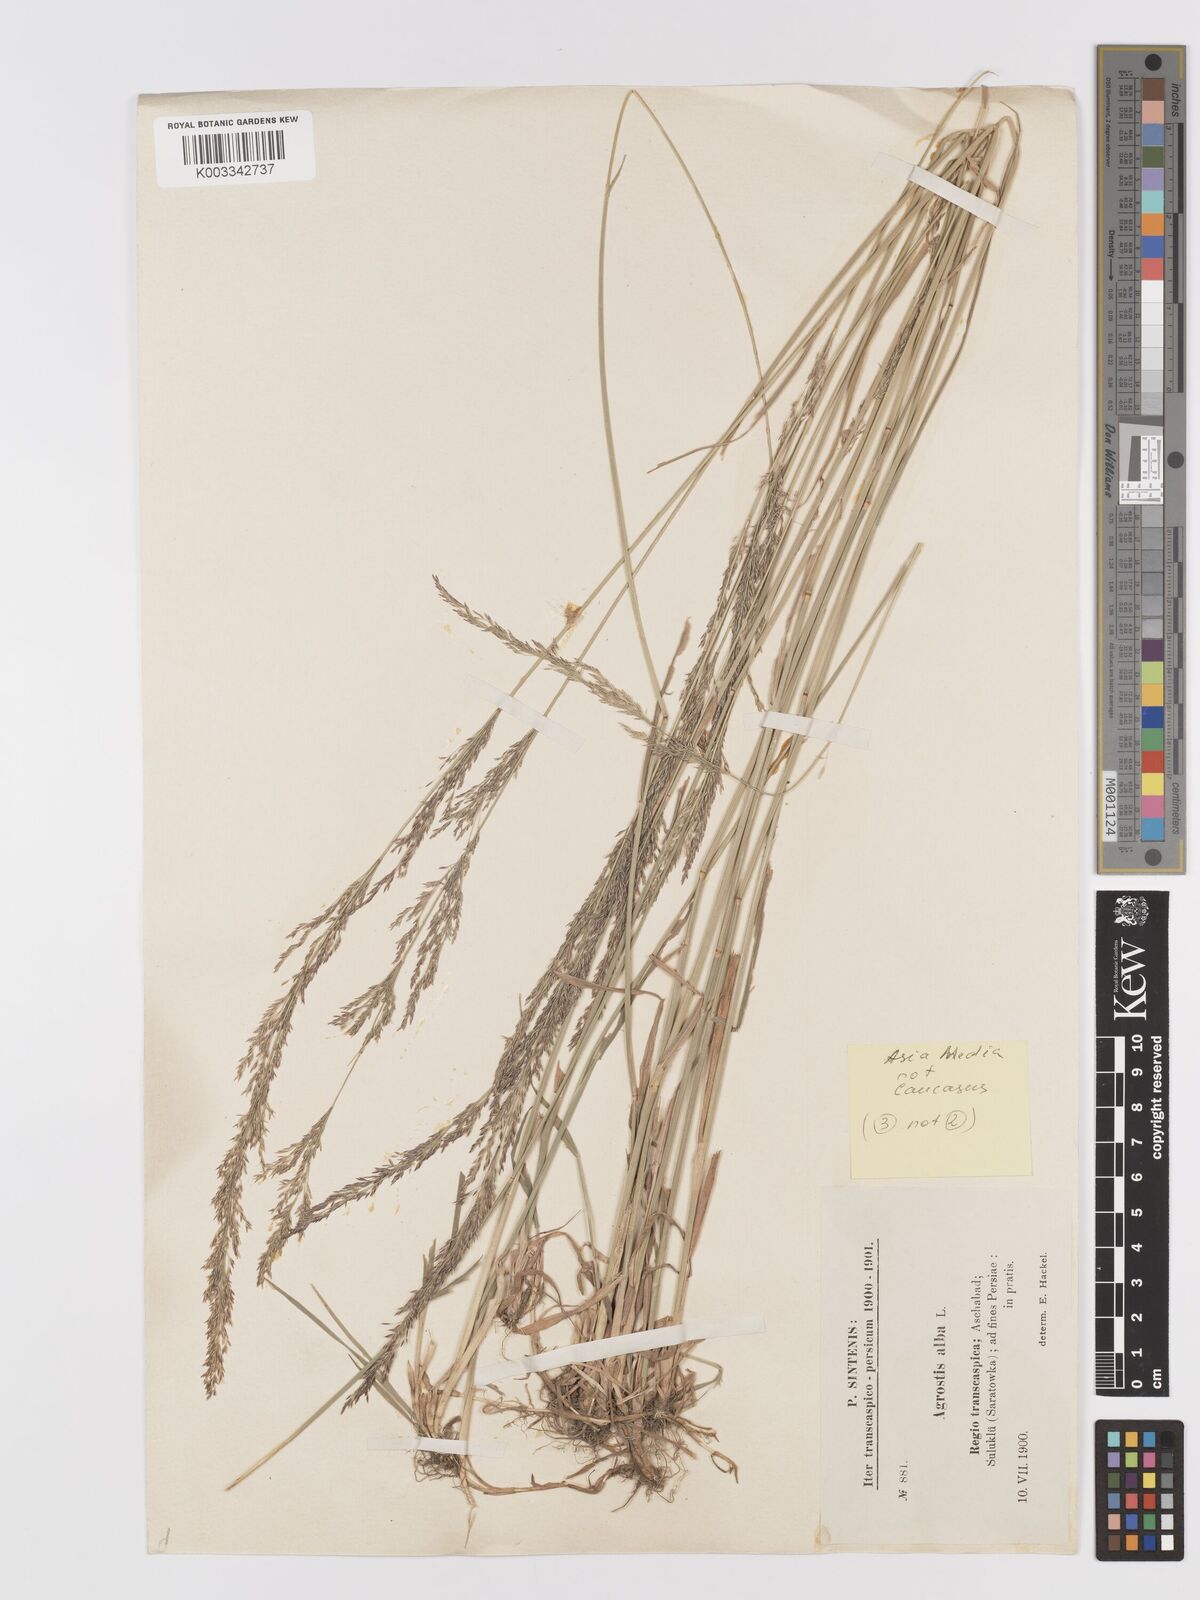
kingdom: Plantae
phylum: Tracheophyta
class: Liliopsida
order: Poales
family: Poaceae
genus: Agrostis
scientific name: Agrostis stolonifera
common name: Creeping bentgrass
